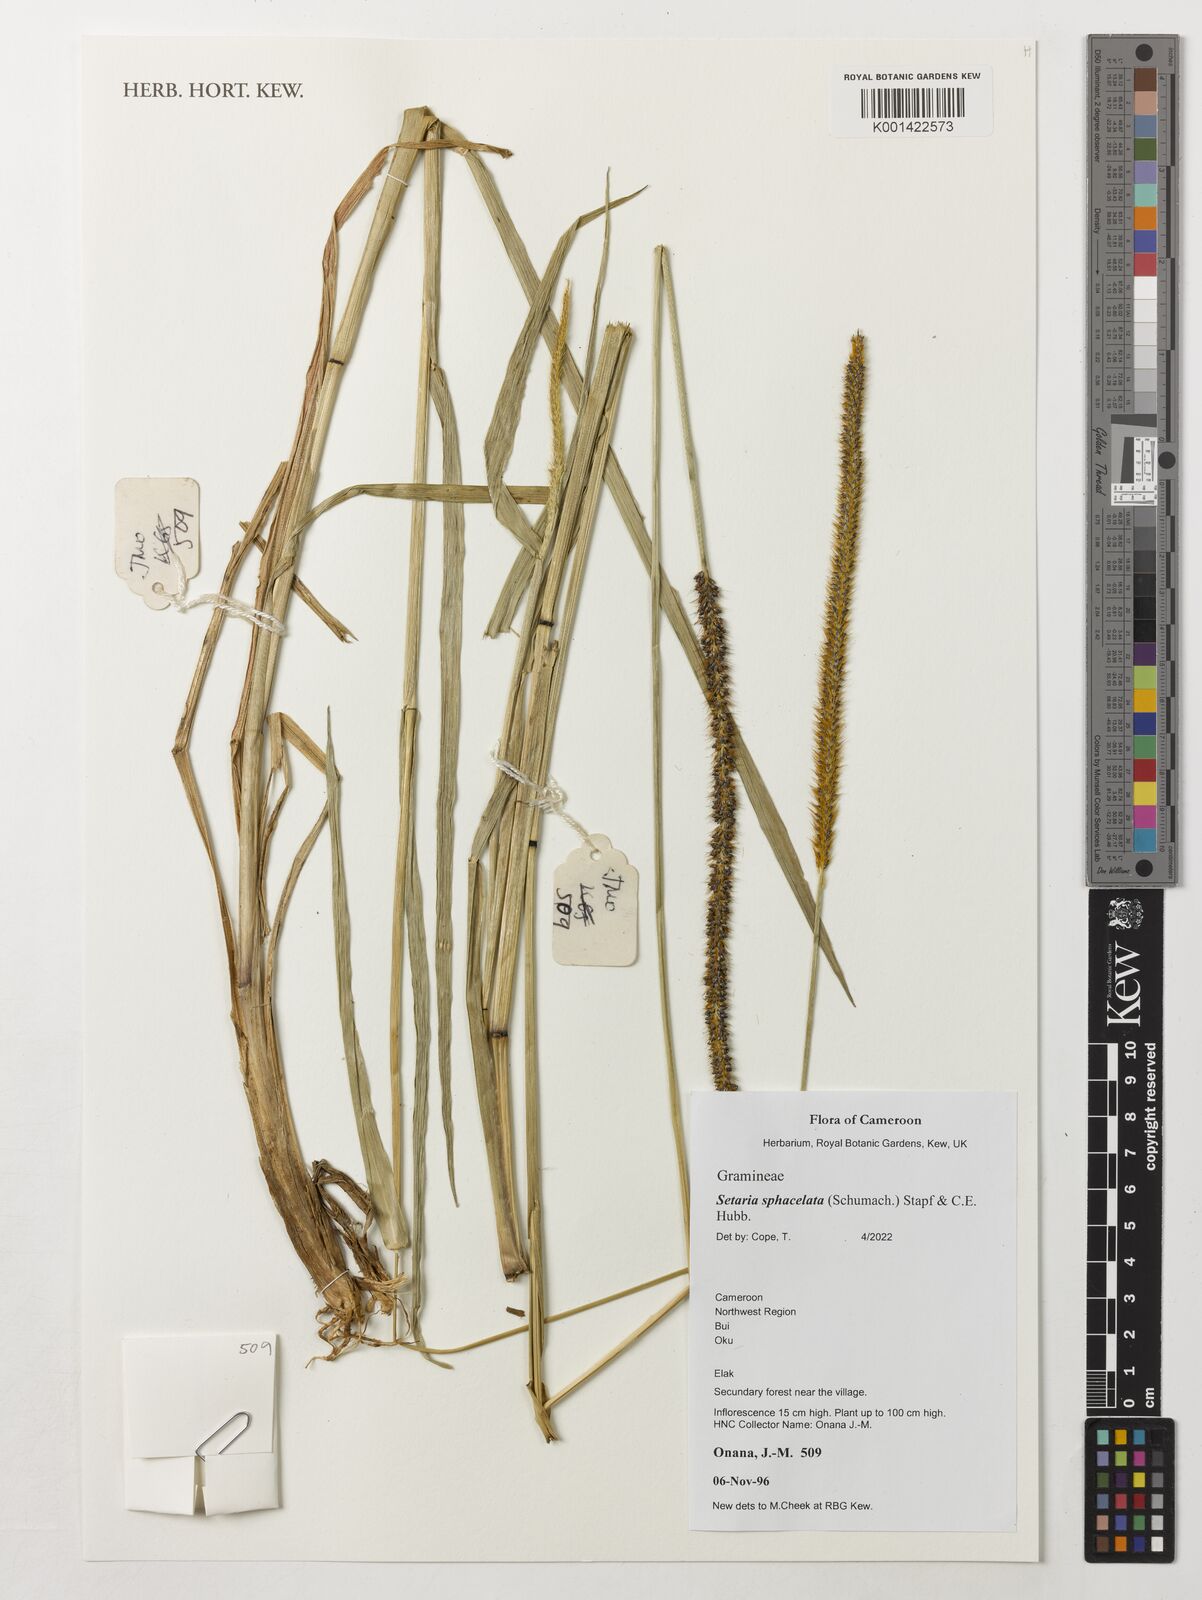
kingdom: Plantae
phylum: Tracheophyta
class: Liliopsida
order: Poales
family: Poaceae
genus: Setaria
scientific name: Setaria sphacelata
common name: African bristlegrass
